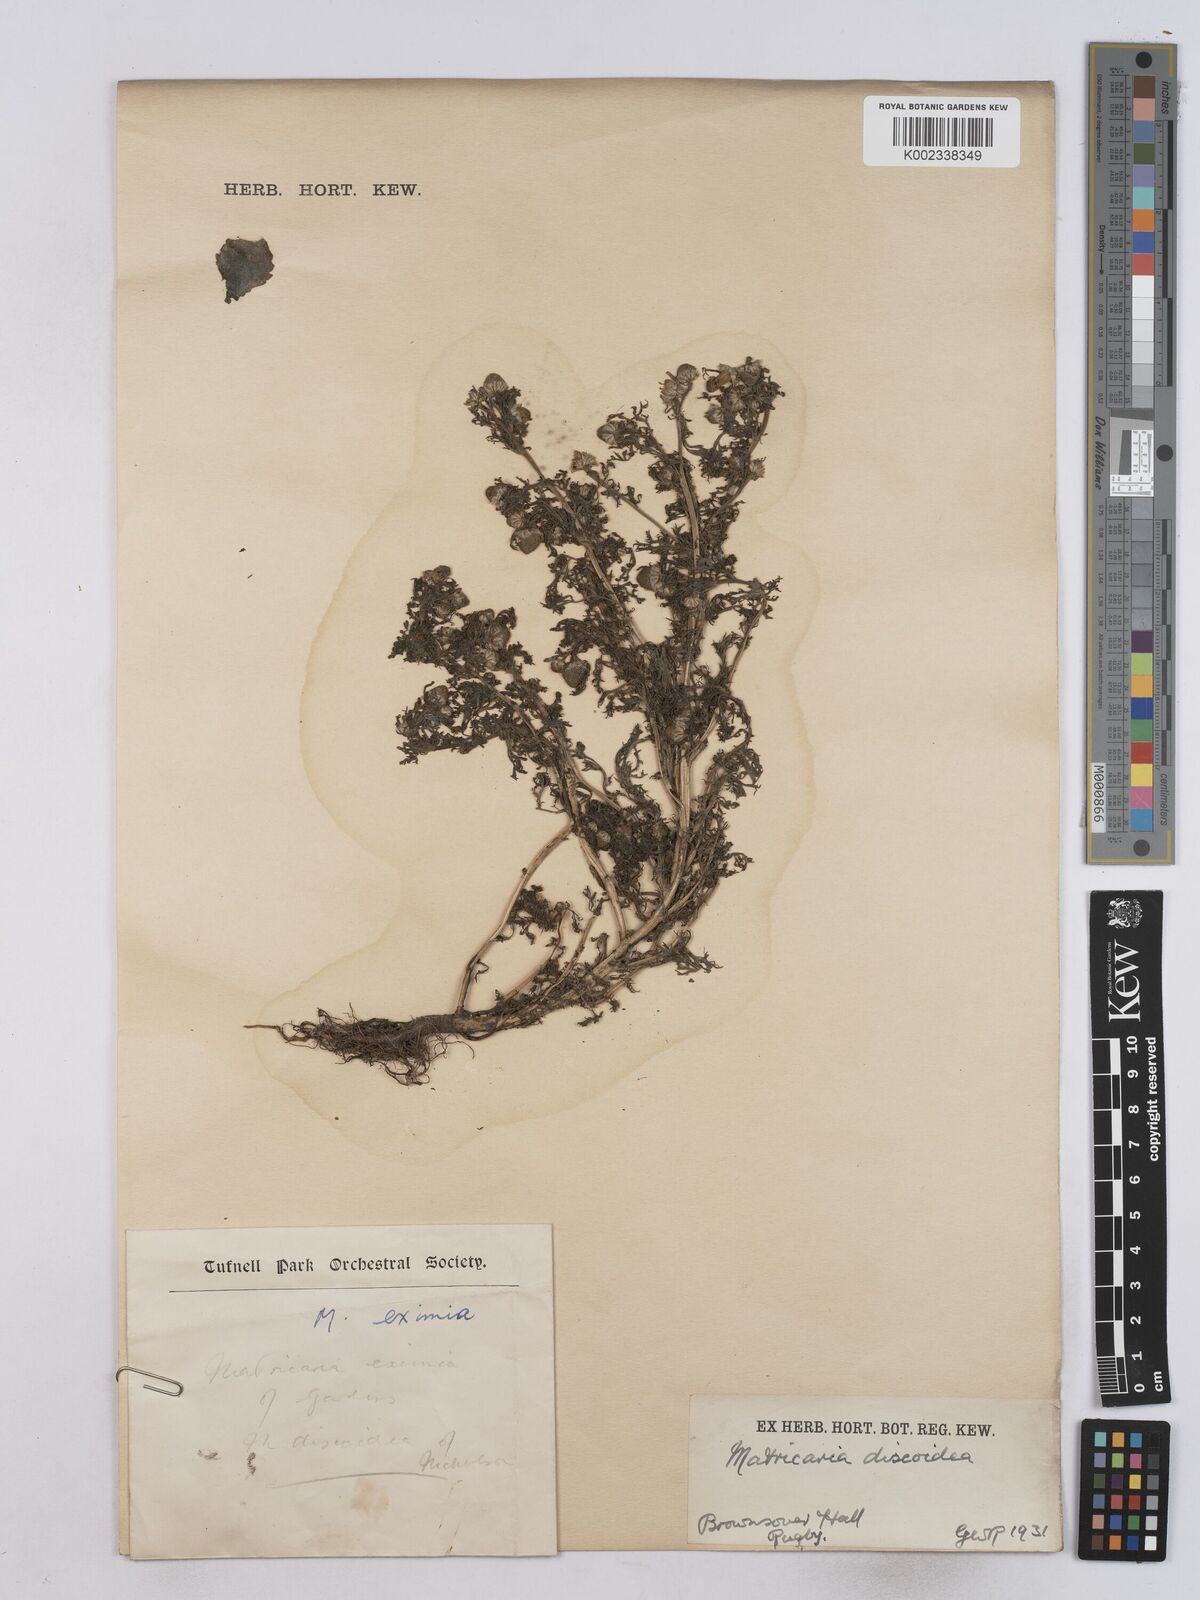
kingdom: Plantae
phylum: Tracheophyta
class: Magnoliopsida
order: Asterales
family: Asteraceae
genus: Matricaria
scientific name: Matricaria discoidea
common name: Disc mayweed
